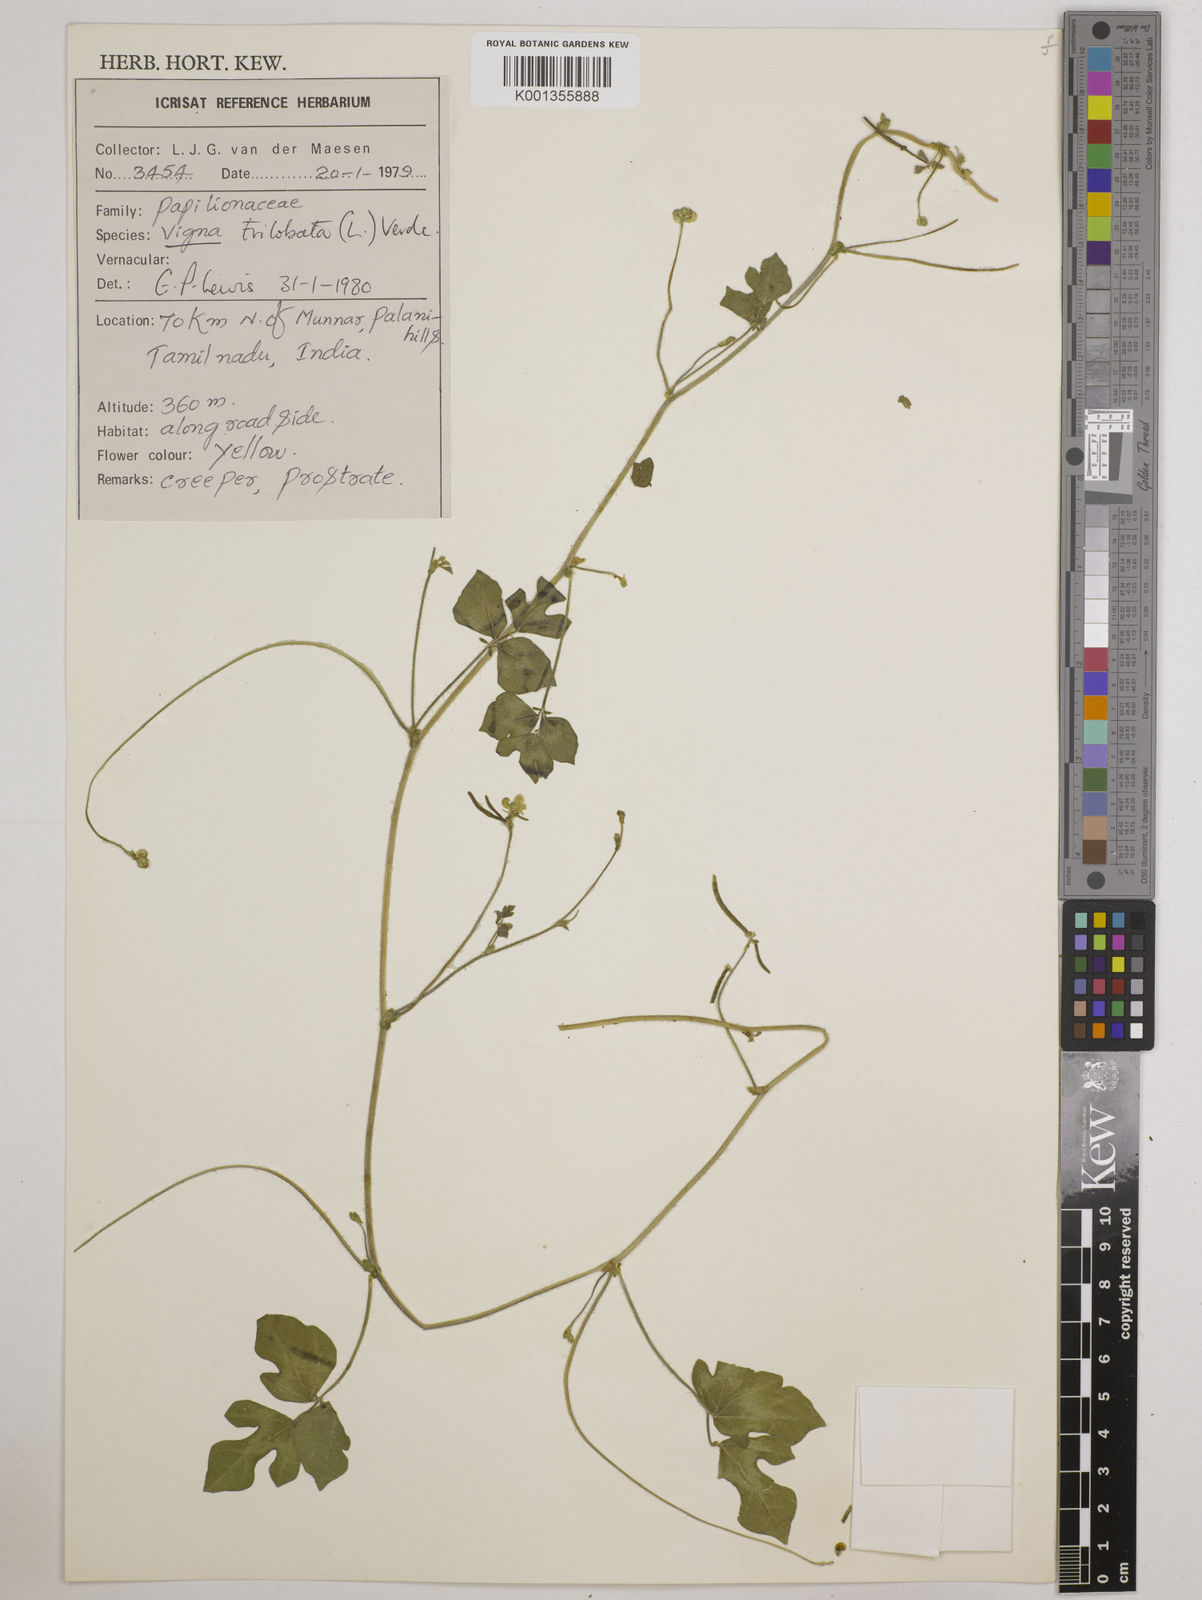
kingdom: Plantae
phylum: Tracheophyta
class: Magnoliopsida
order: Fabales
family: Fabaceae
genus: Vigna
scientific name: Vigna trilobata
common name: Jungli-bean
